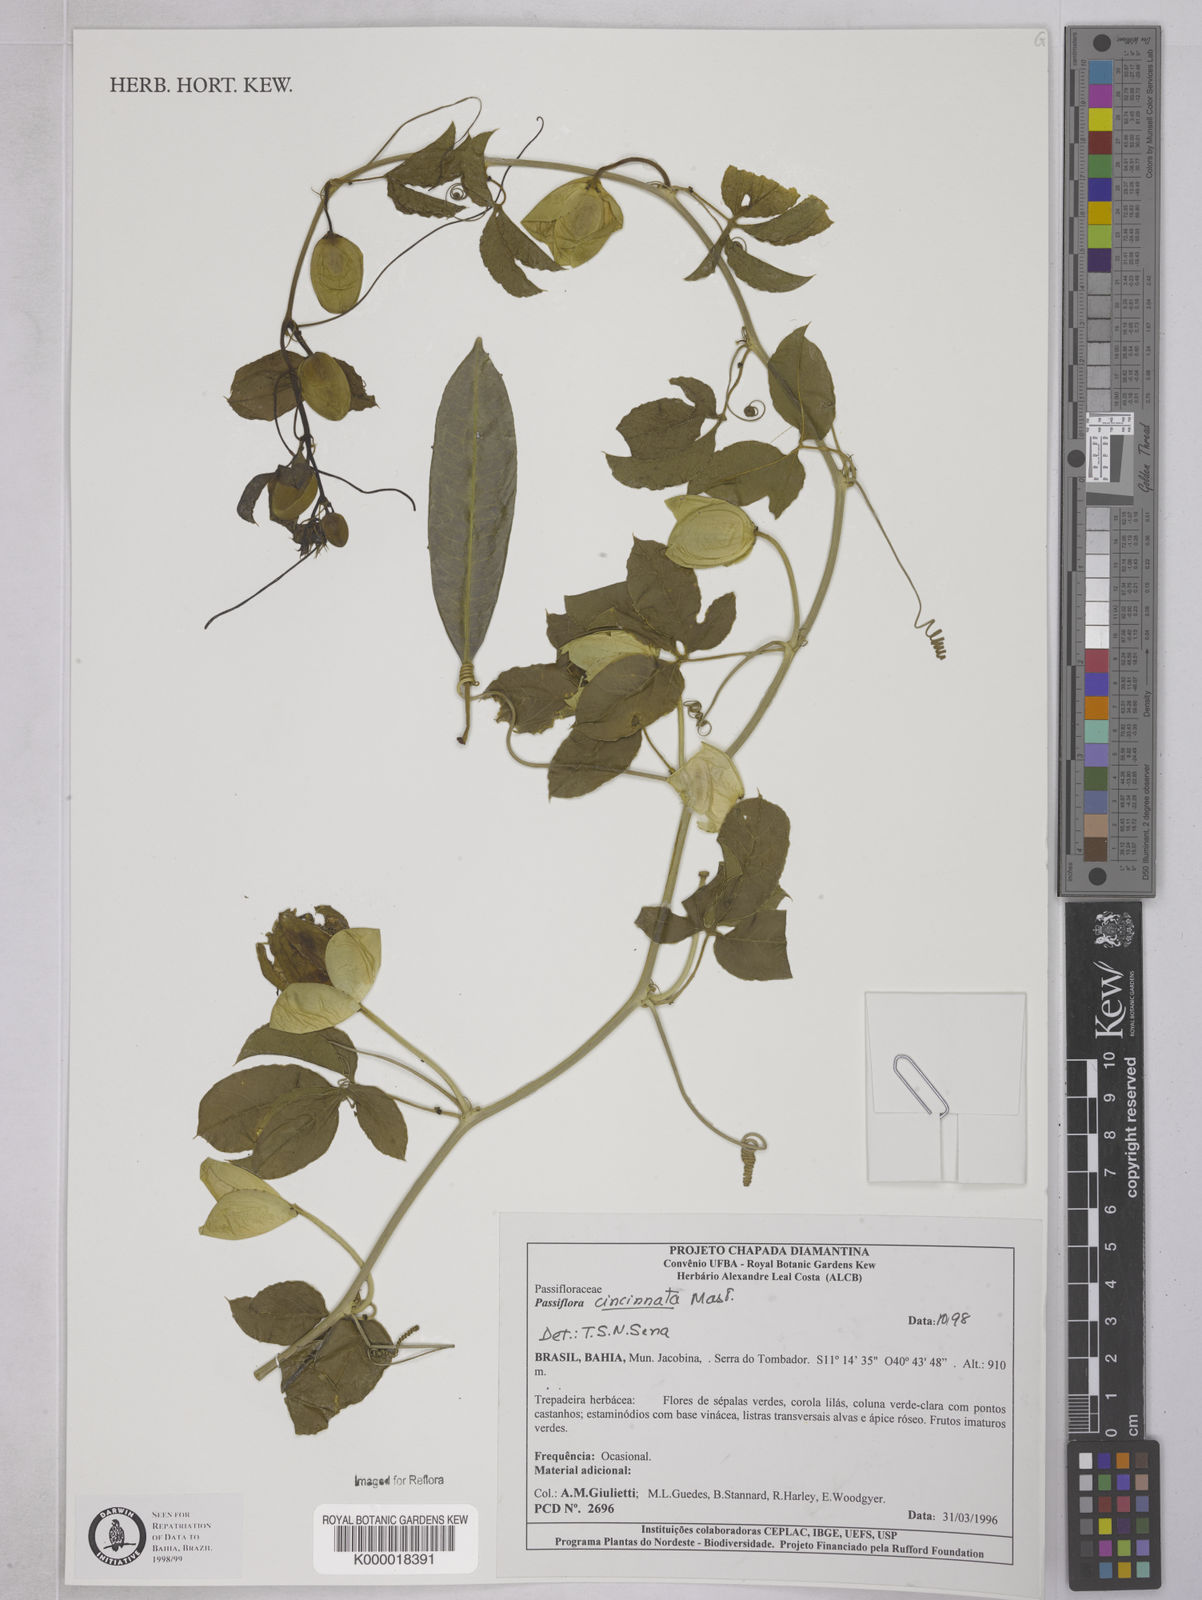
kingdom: Plantae
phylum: Tracheophyta
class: Magnoliopsida
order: Malpighiales
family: Passifloraceae
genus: Passiflora
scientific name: Passiflora cincinnata
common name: Crato passionvine
